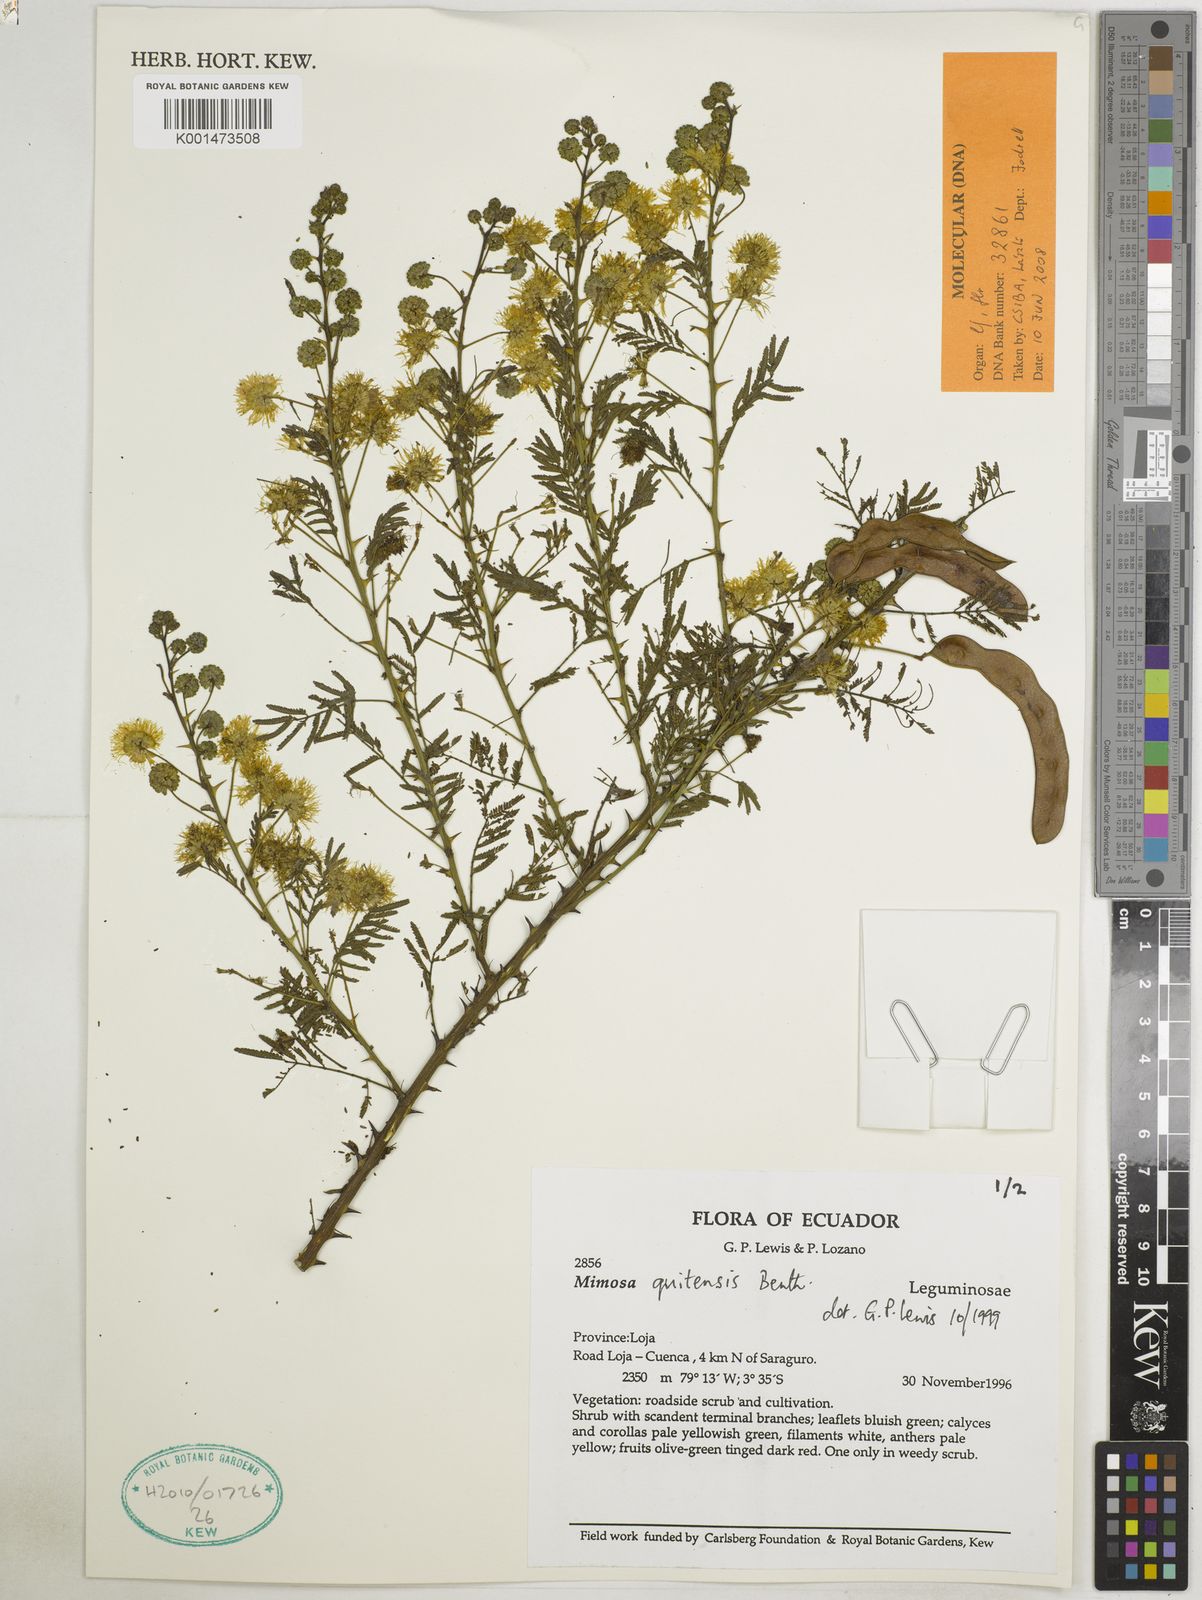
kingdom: Plantae
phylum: Tracheophyta
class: Magnoliopsida
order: Fabales
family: Fabaceae
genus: Mimosa
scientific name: Mimosa quitensis
